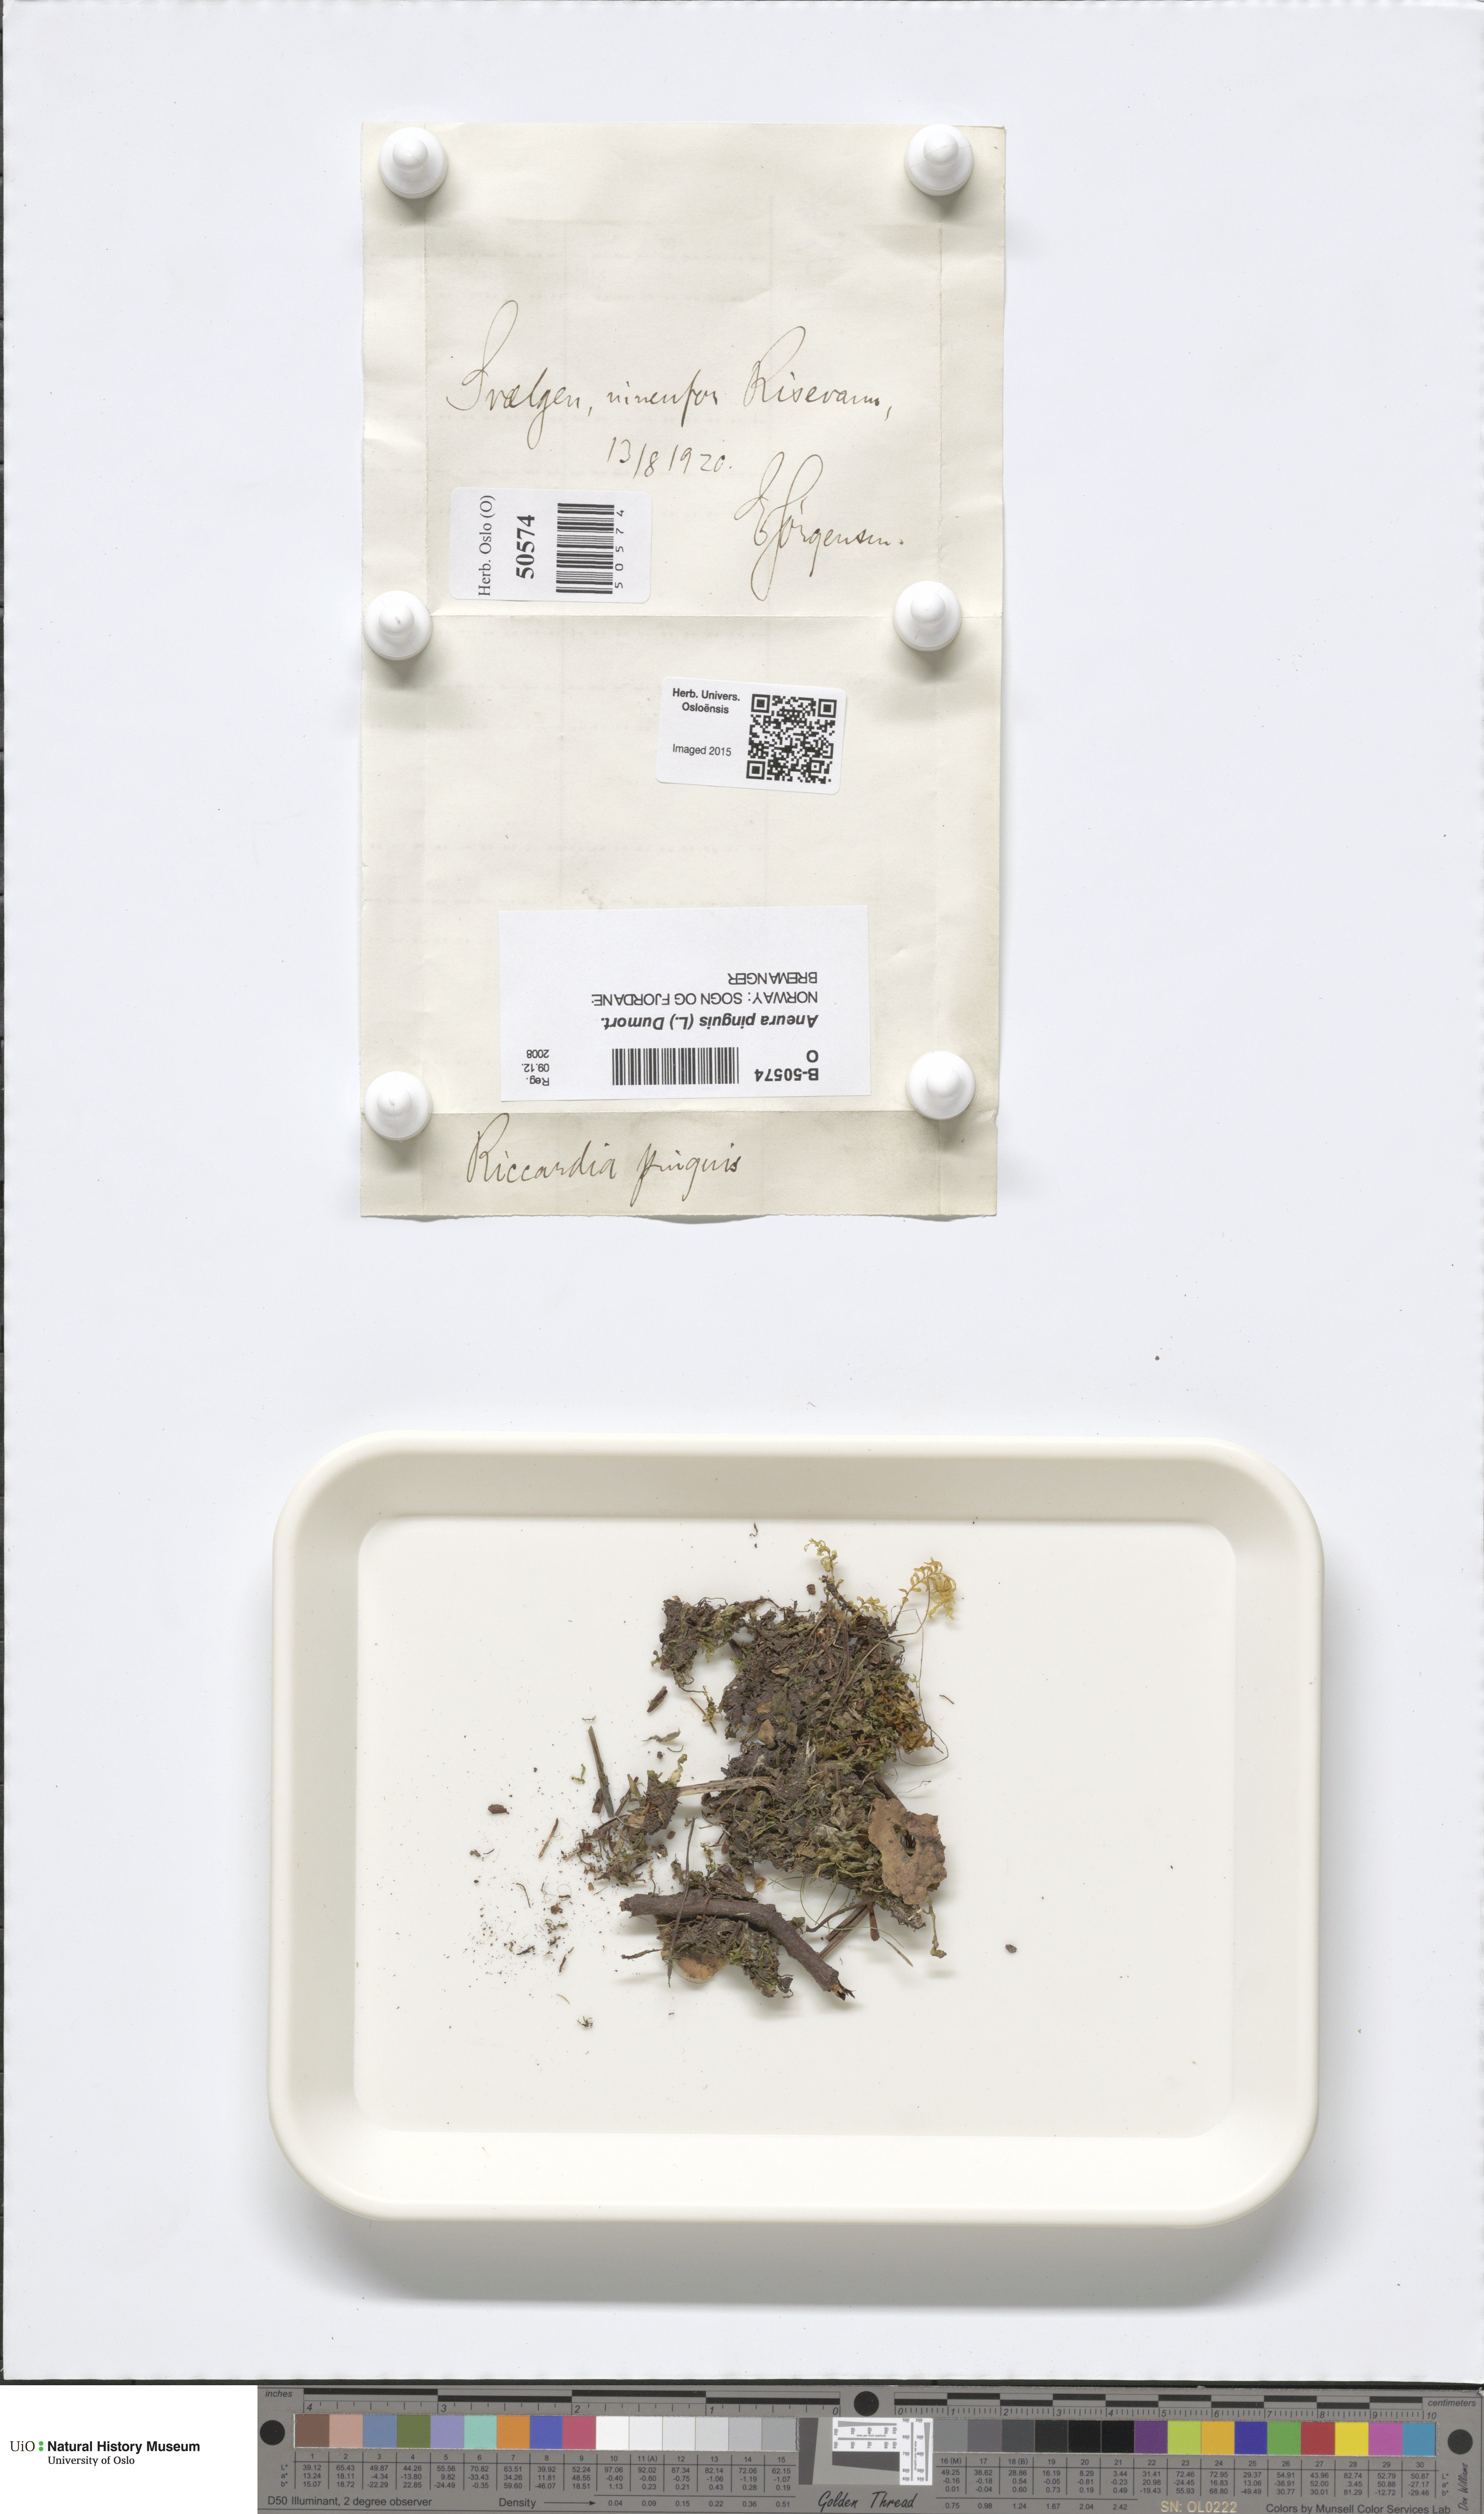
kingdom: Plantae
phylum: Marchantiophyta
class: Jungermanniopsida
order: Metzgeriales
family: Aneuraceae
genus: Aneura
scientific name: Aneura pinguis
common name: Common greasewort
